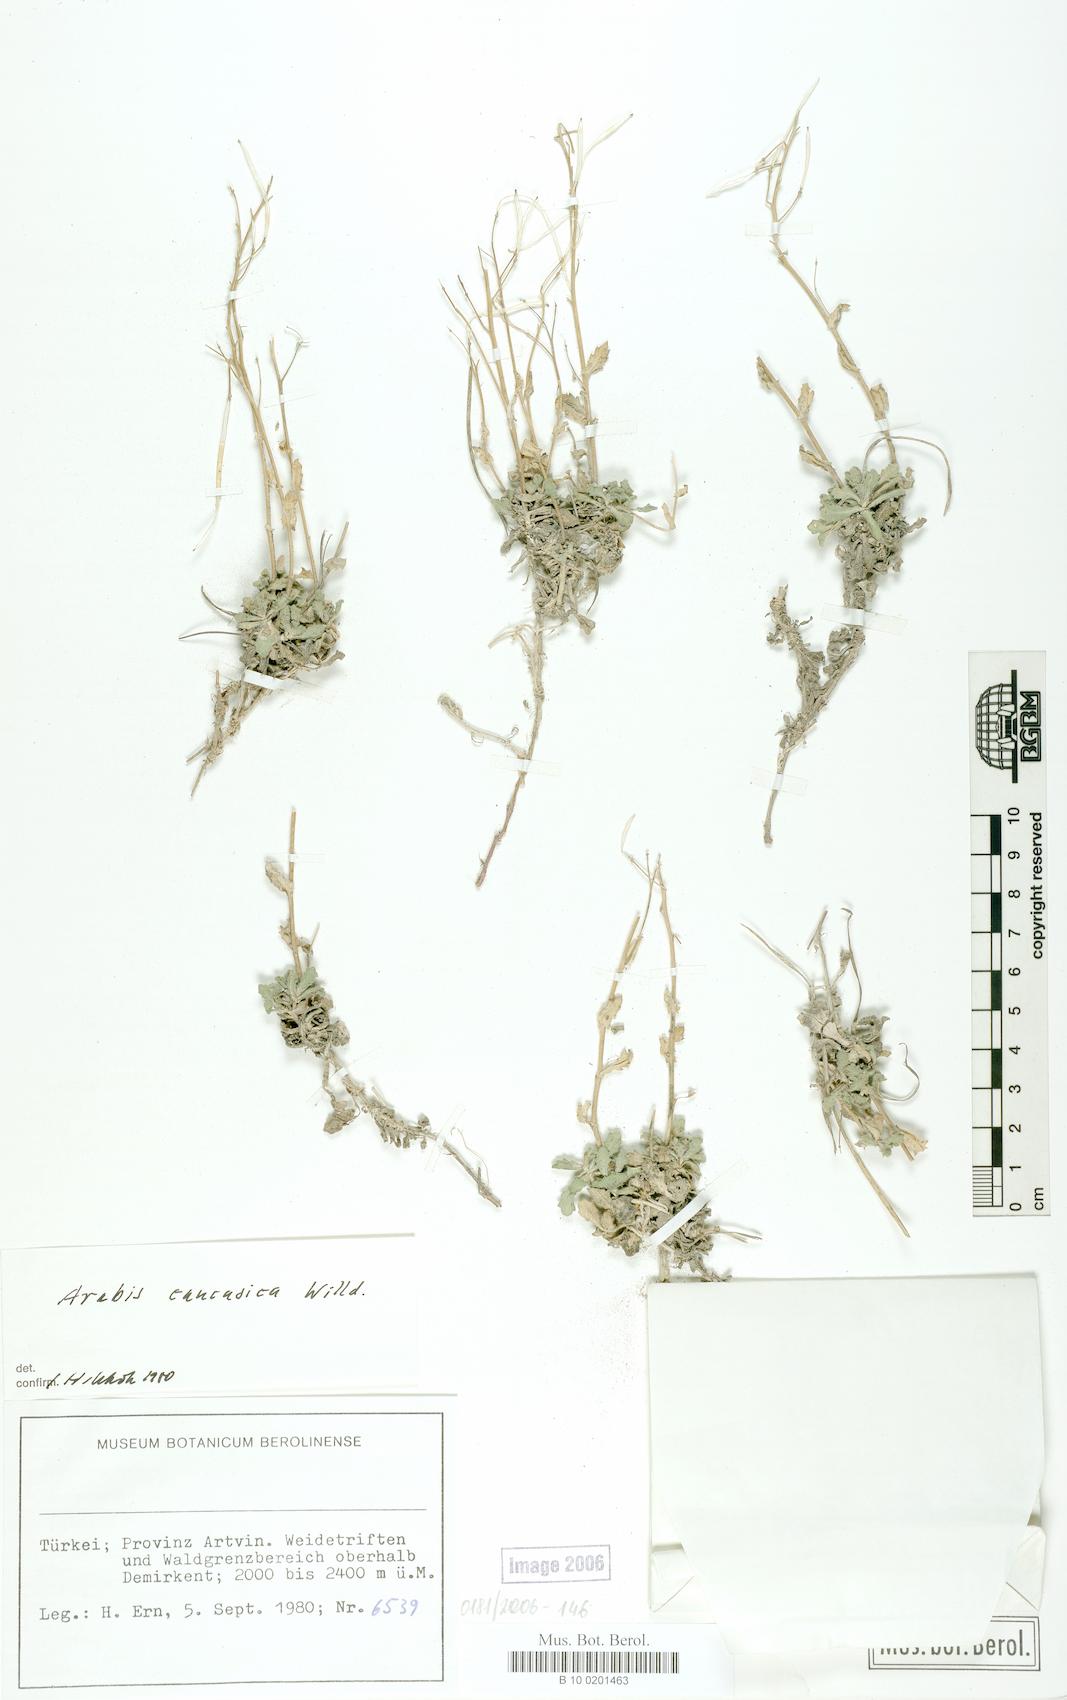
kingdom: Plantae
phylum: Tracheophyta
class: Magnoliopsida
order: Brassicales
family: Brassicaceae
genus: Arabis
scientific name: Arabis caucasica
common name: Gray rockcress
